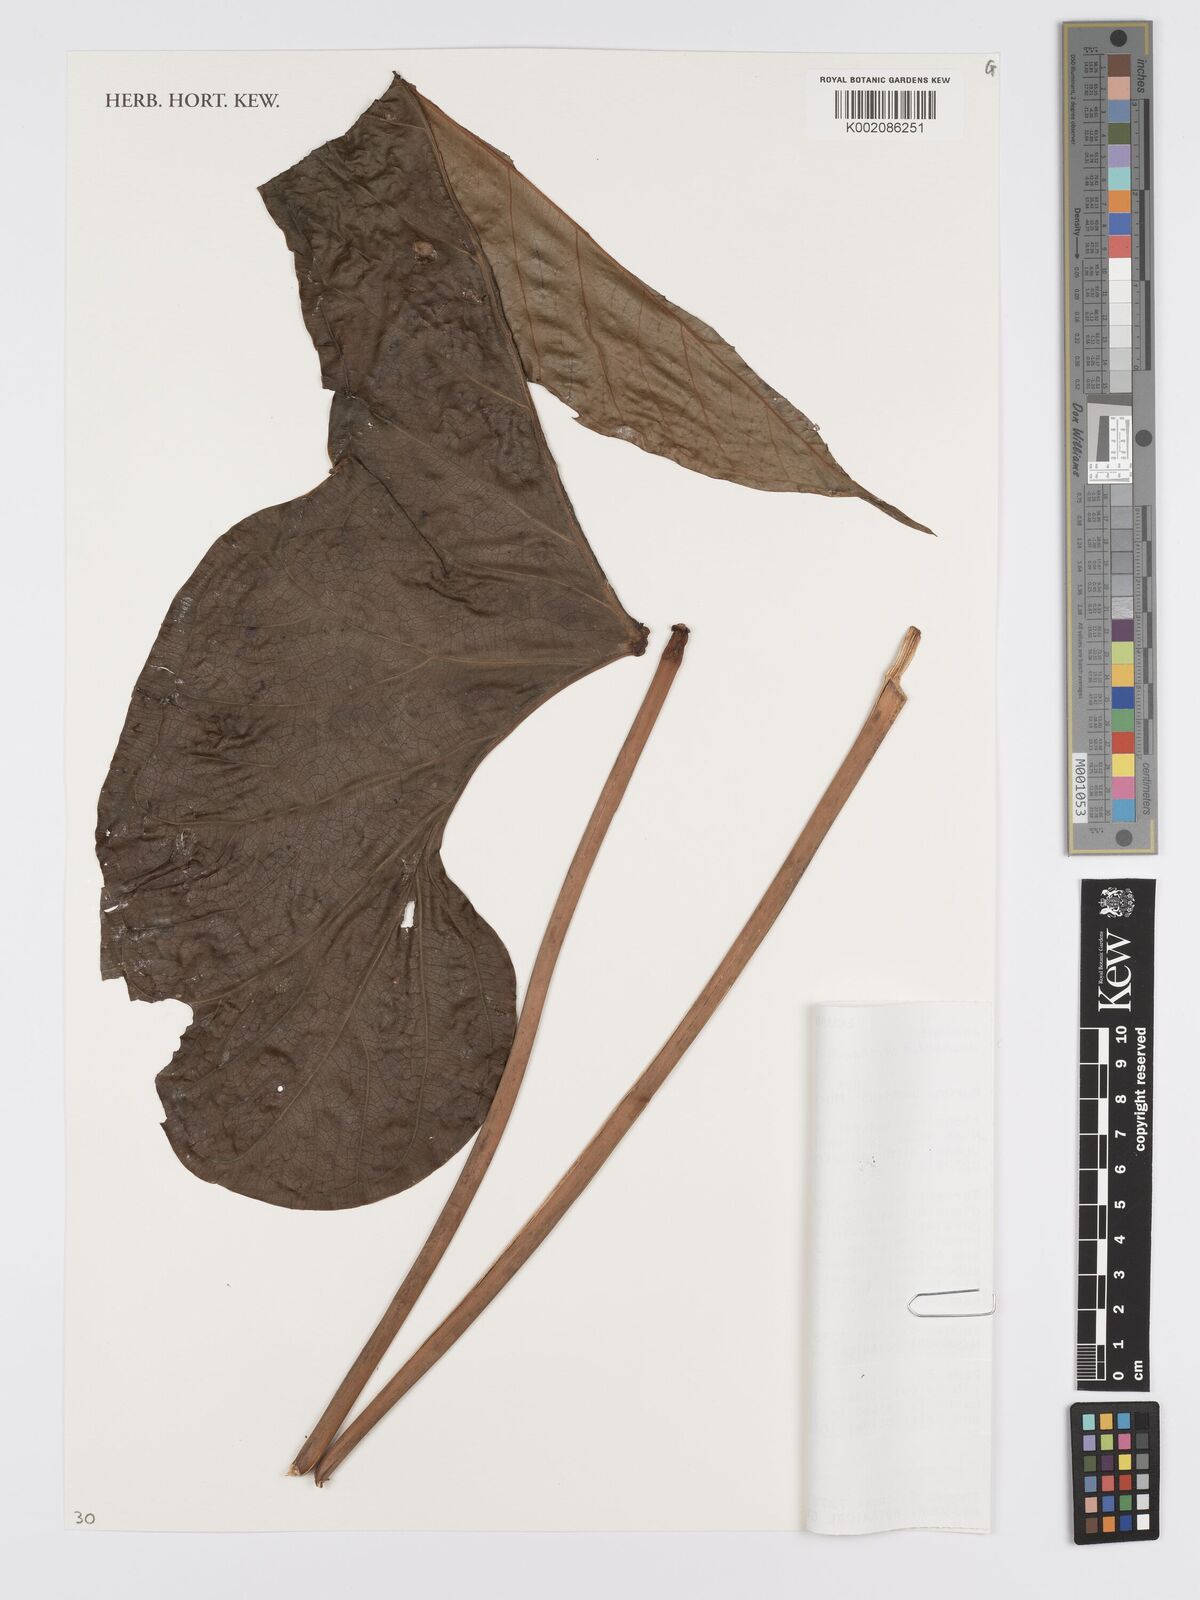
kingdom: Plantae
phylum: Tracheophyta
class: Liliopsida
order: Alismatales
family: Araceae
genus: Anthurium
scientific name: Anthurium herthae
